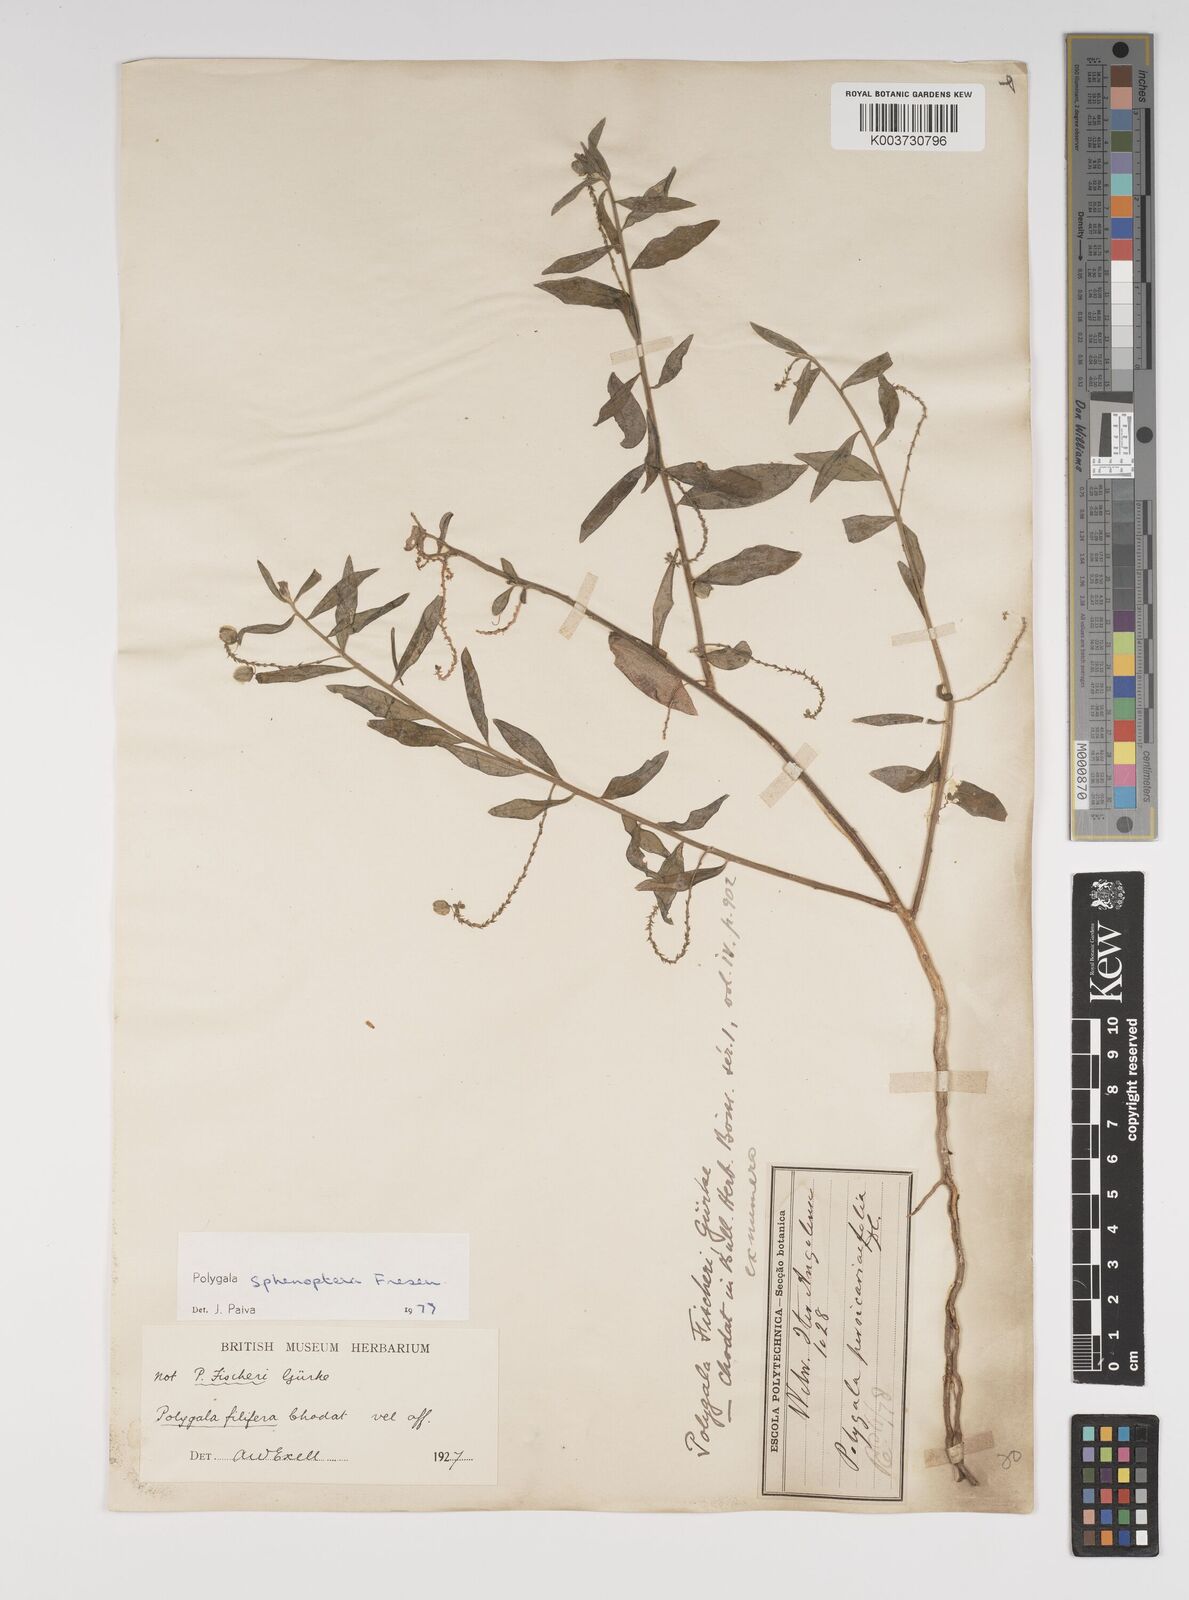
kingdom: Plantae
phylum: Tracheophyta
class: Magnoliopsida
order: Fabales
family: Polygalaceae
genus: Polygala
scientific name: Polygala sphenoptera
